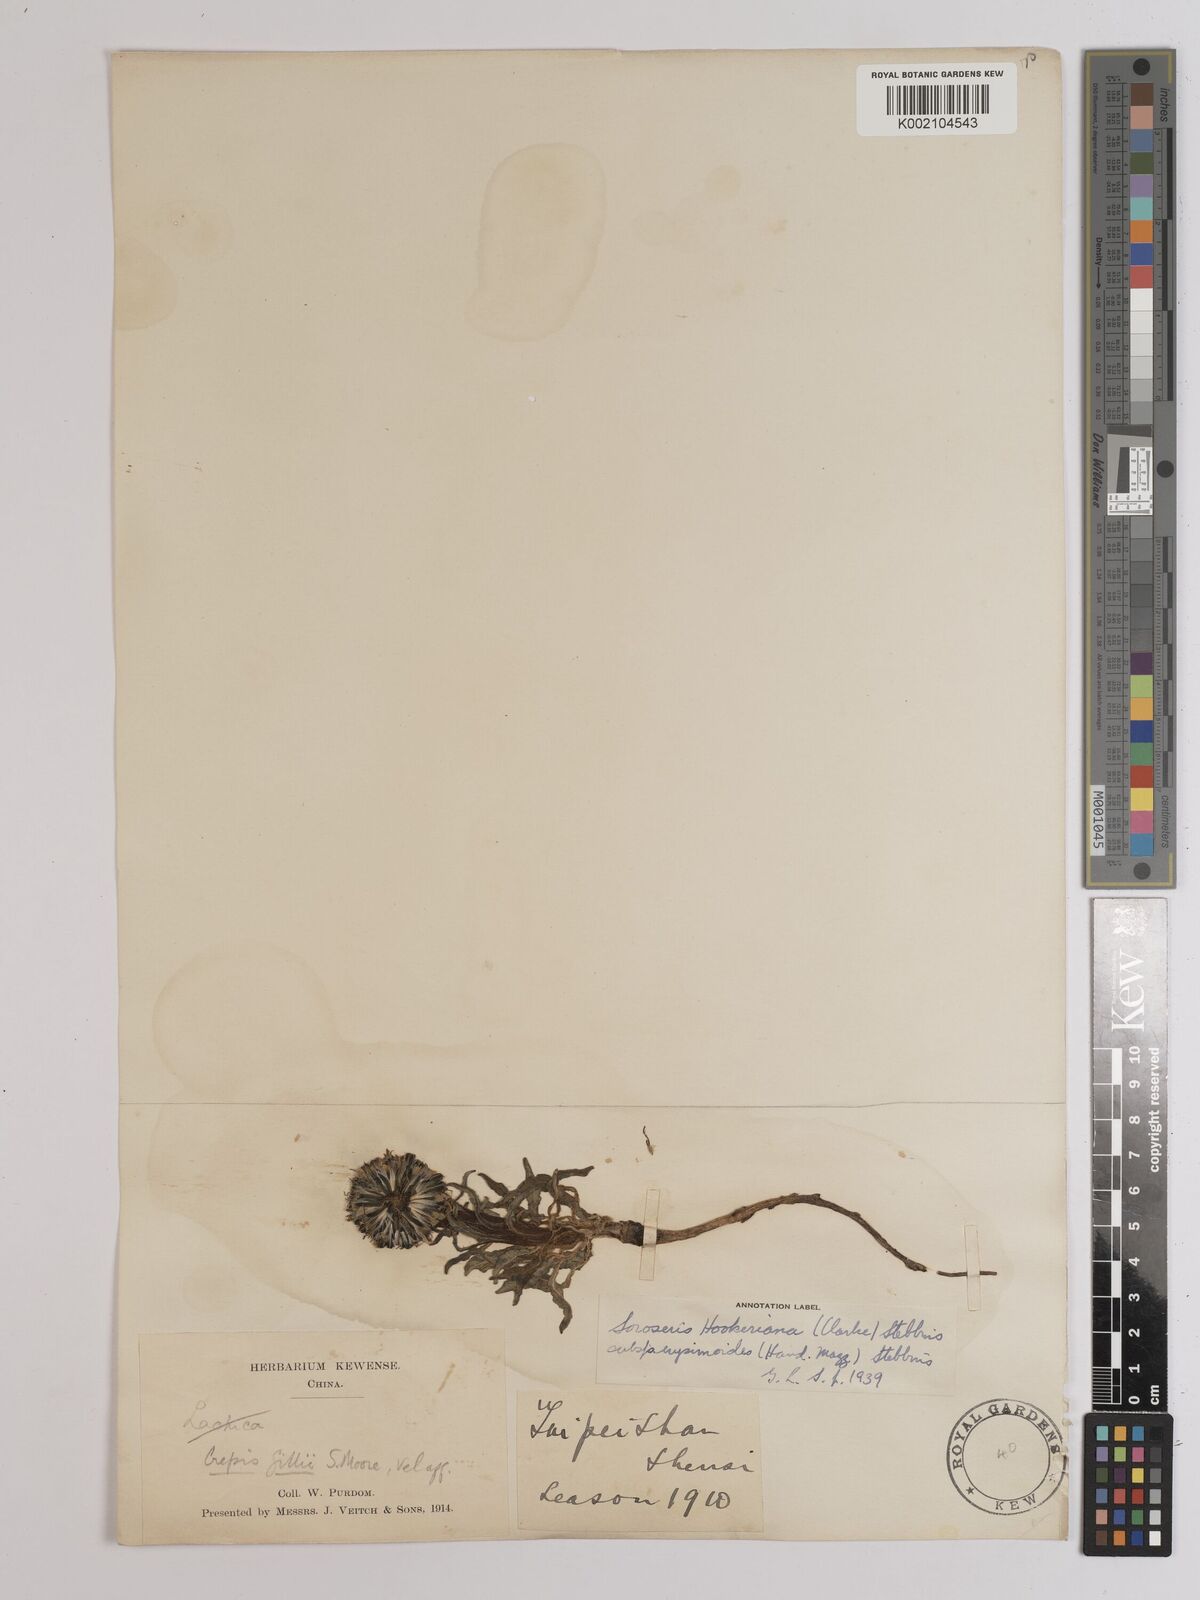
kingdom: Plantae
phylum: Tracheophyta
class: Magnoliopsida
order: Asterales
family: Asteraceae
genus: Soroseris
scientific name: Soroseris hookeriana
